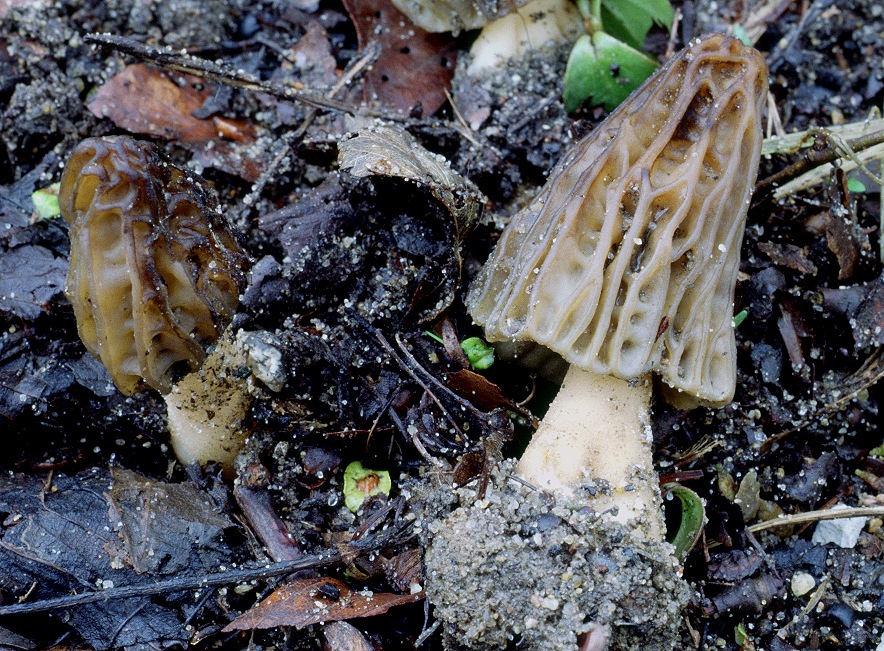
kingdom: Fungi
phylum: Ascomycota
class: Pezizomycetes
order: Pezizales
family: Morchellaceae
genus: Morchella
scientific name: Morchella semilibera
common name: hætte-morkel
